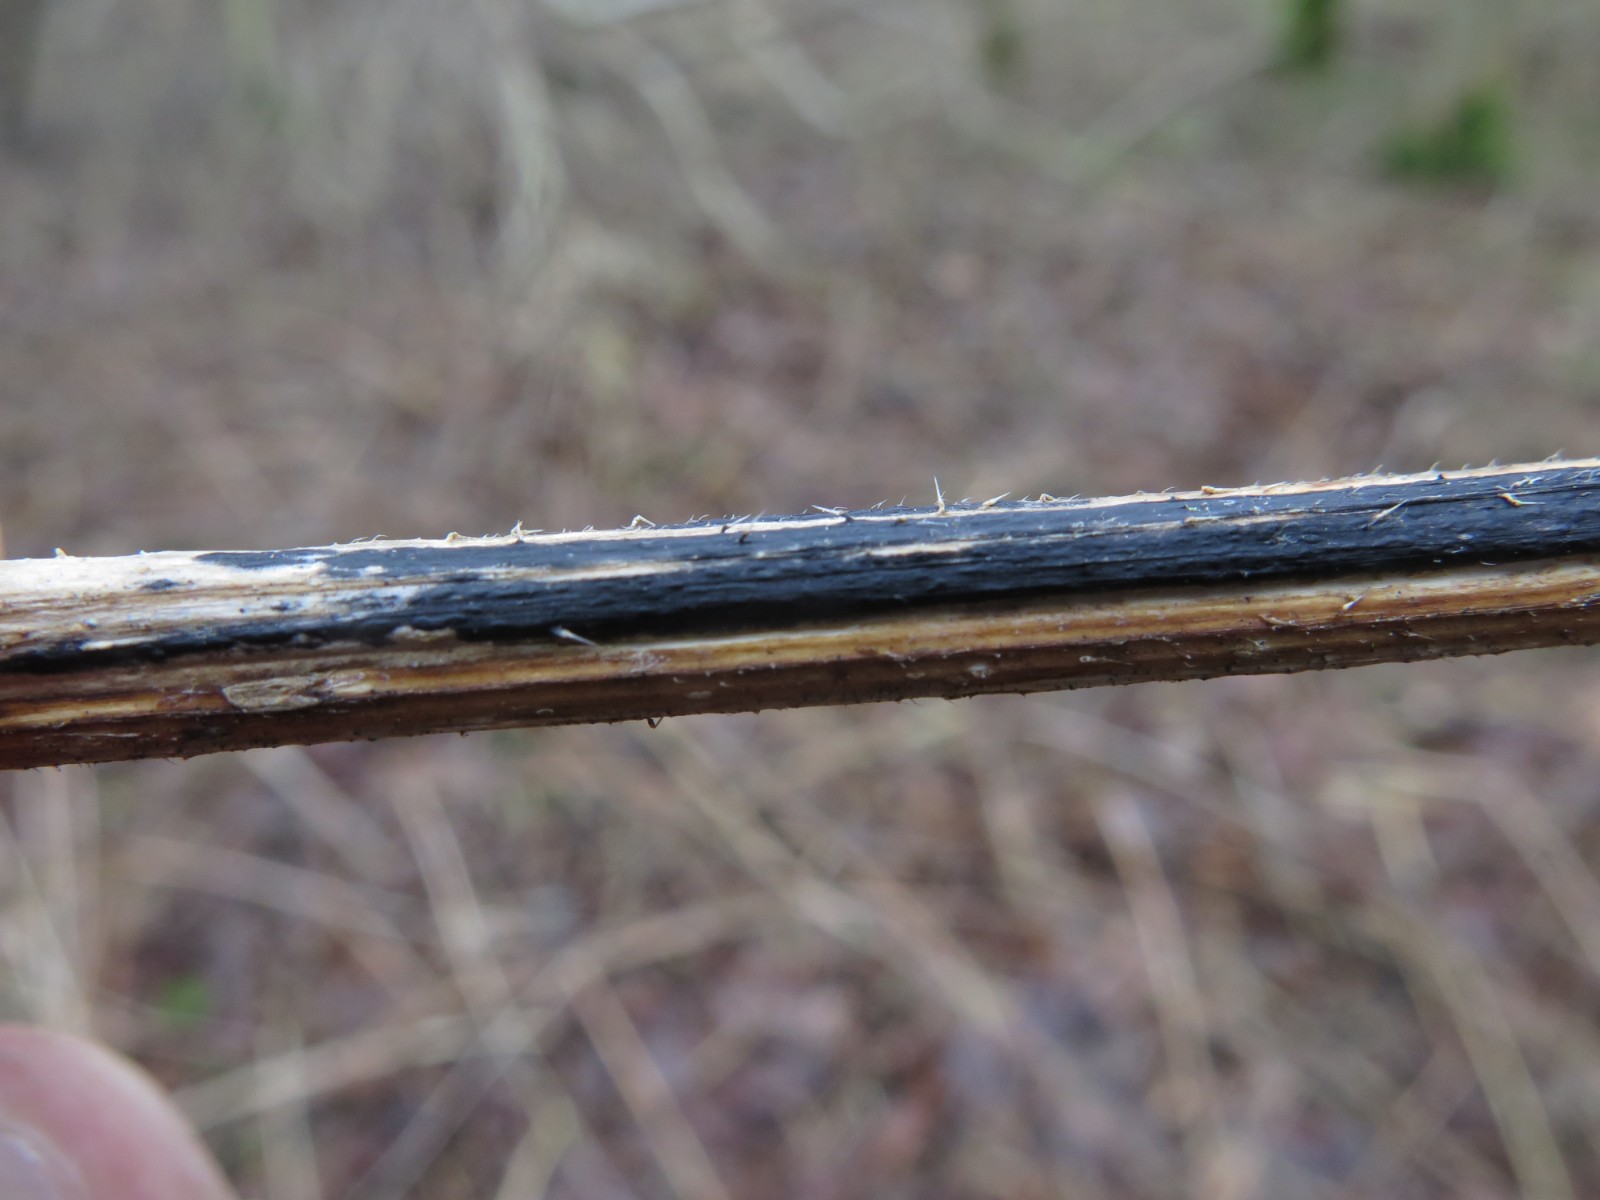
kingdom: Fungi
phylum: Ascomycota
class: Sordariomycetes
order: Diaporthales
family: Diaporthaceae
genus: Diaporthopsis
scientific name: Diaporthopsis urticae
